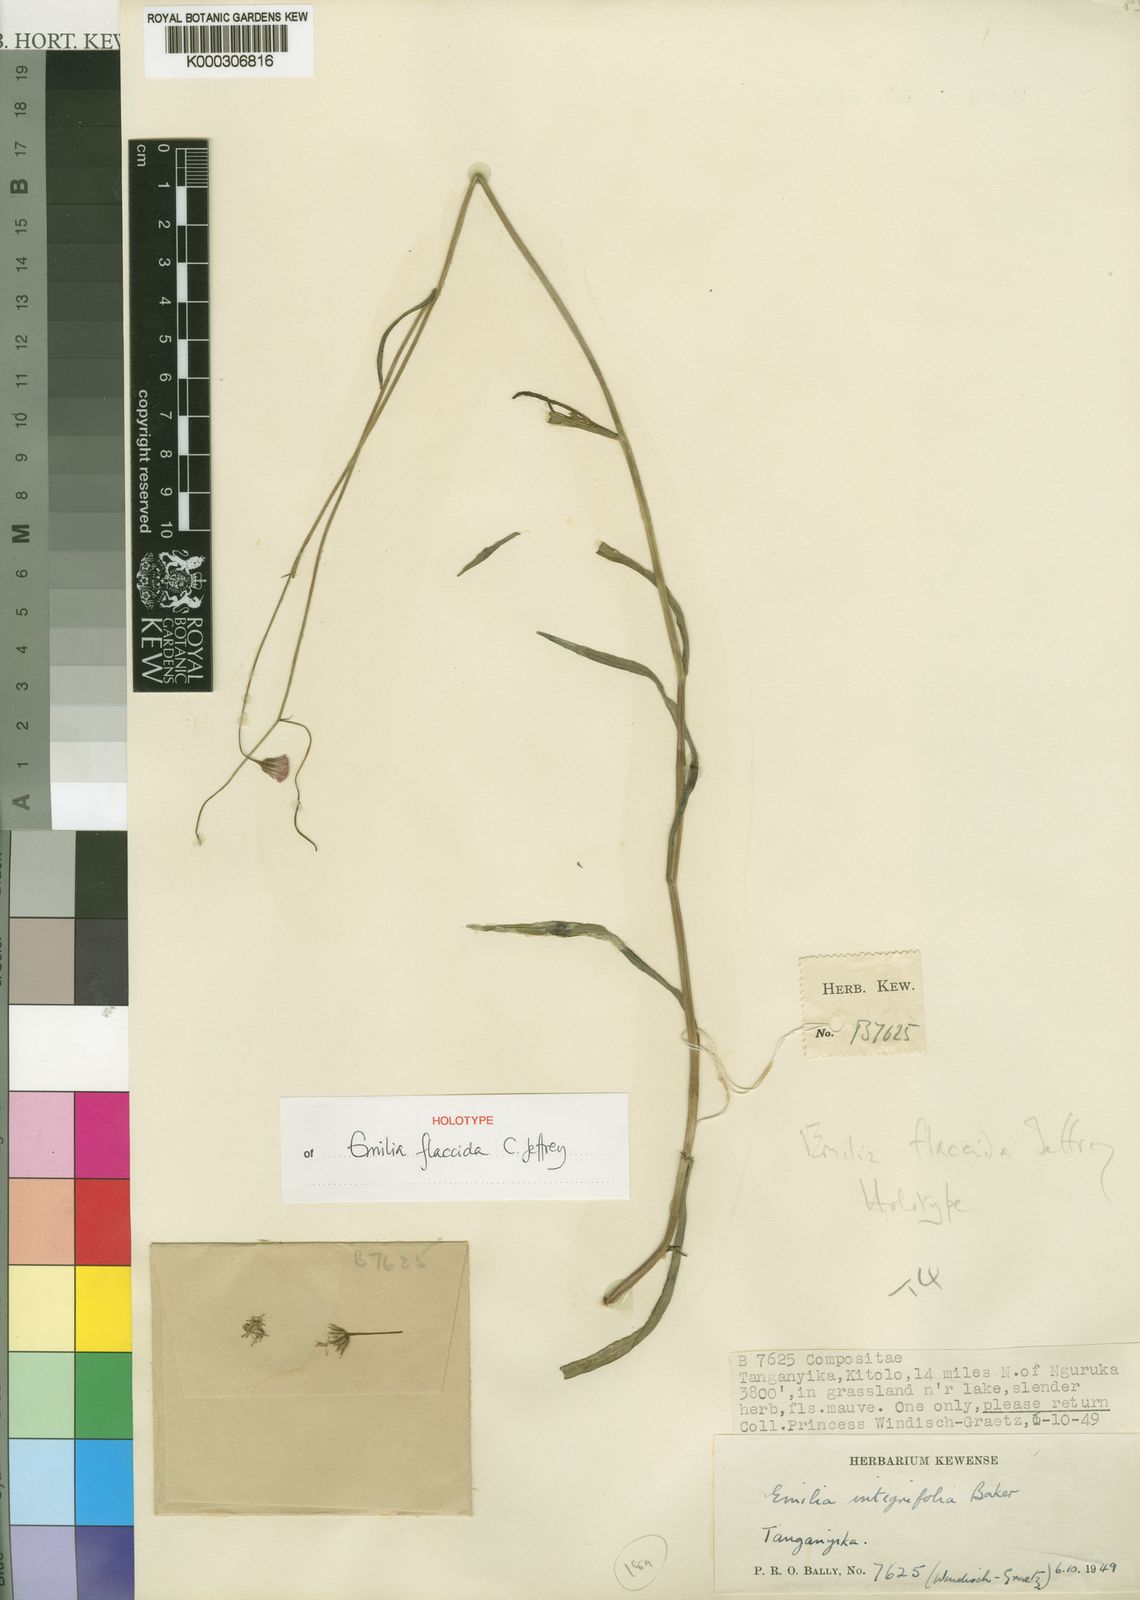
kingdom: Plantae
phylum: Tracheophyta
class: Magnoliopsida
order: Asterales
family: Asteraceae
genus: Emilia
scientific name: Emilia charlesii
